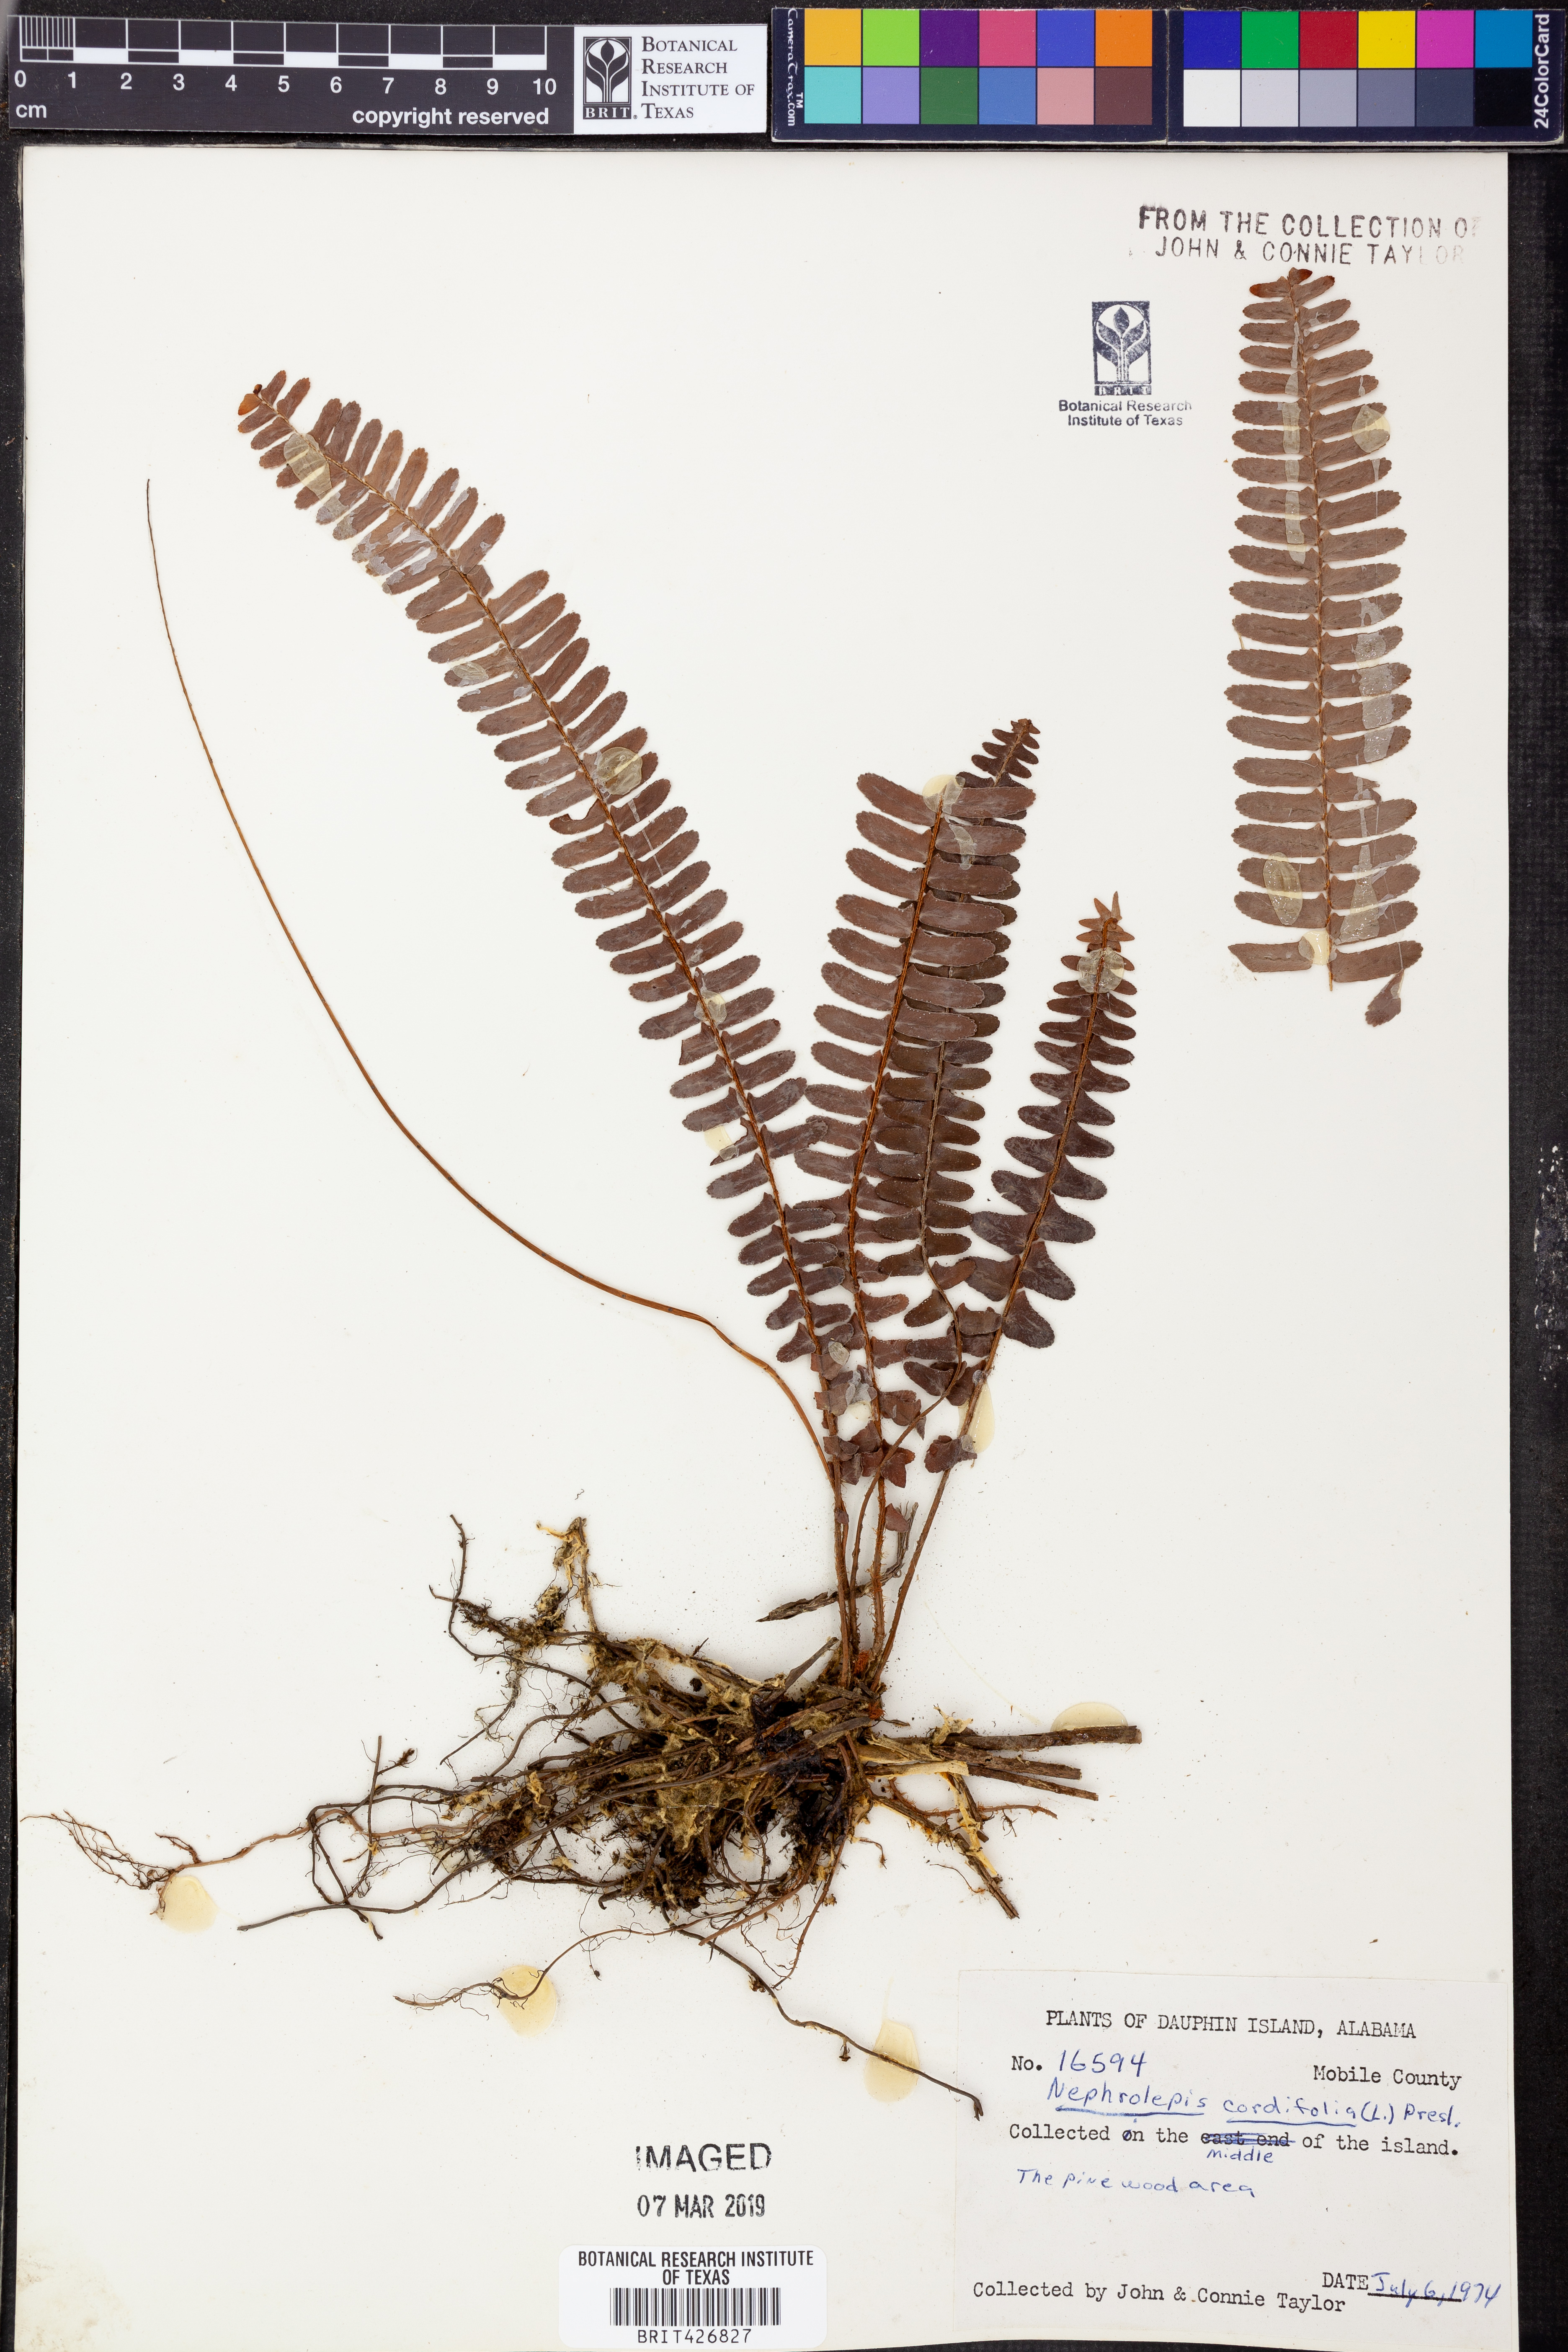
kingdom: Plantae
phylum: Tracheophyta
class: Polypodiopsida
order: Polypodiales
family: Nephrolepidaceae
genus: Nephrolepis
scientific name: Nephrolepis cordifolia
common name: Narrow swordfern
